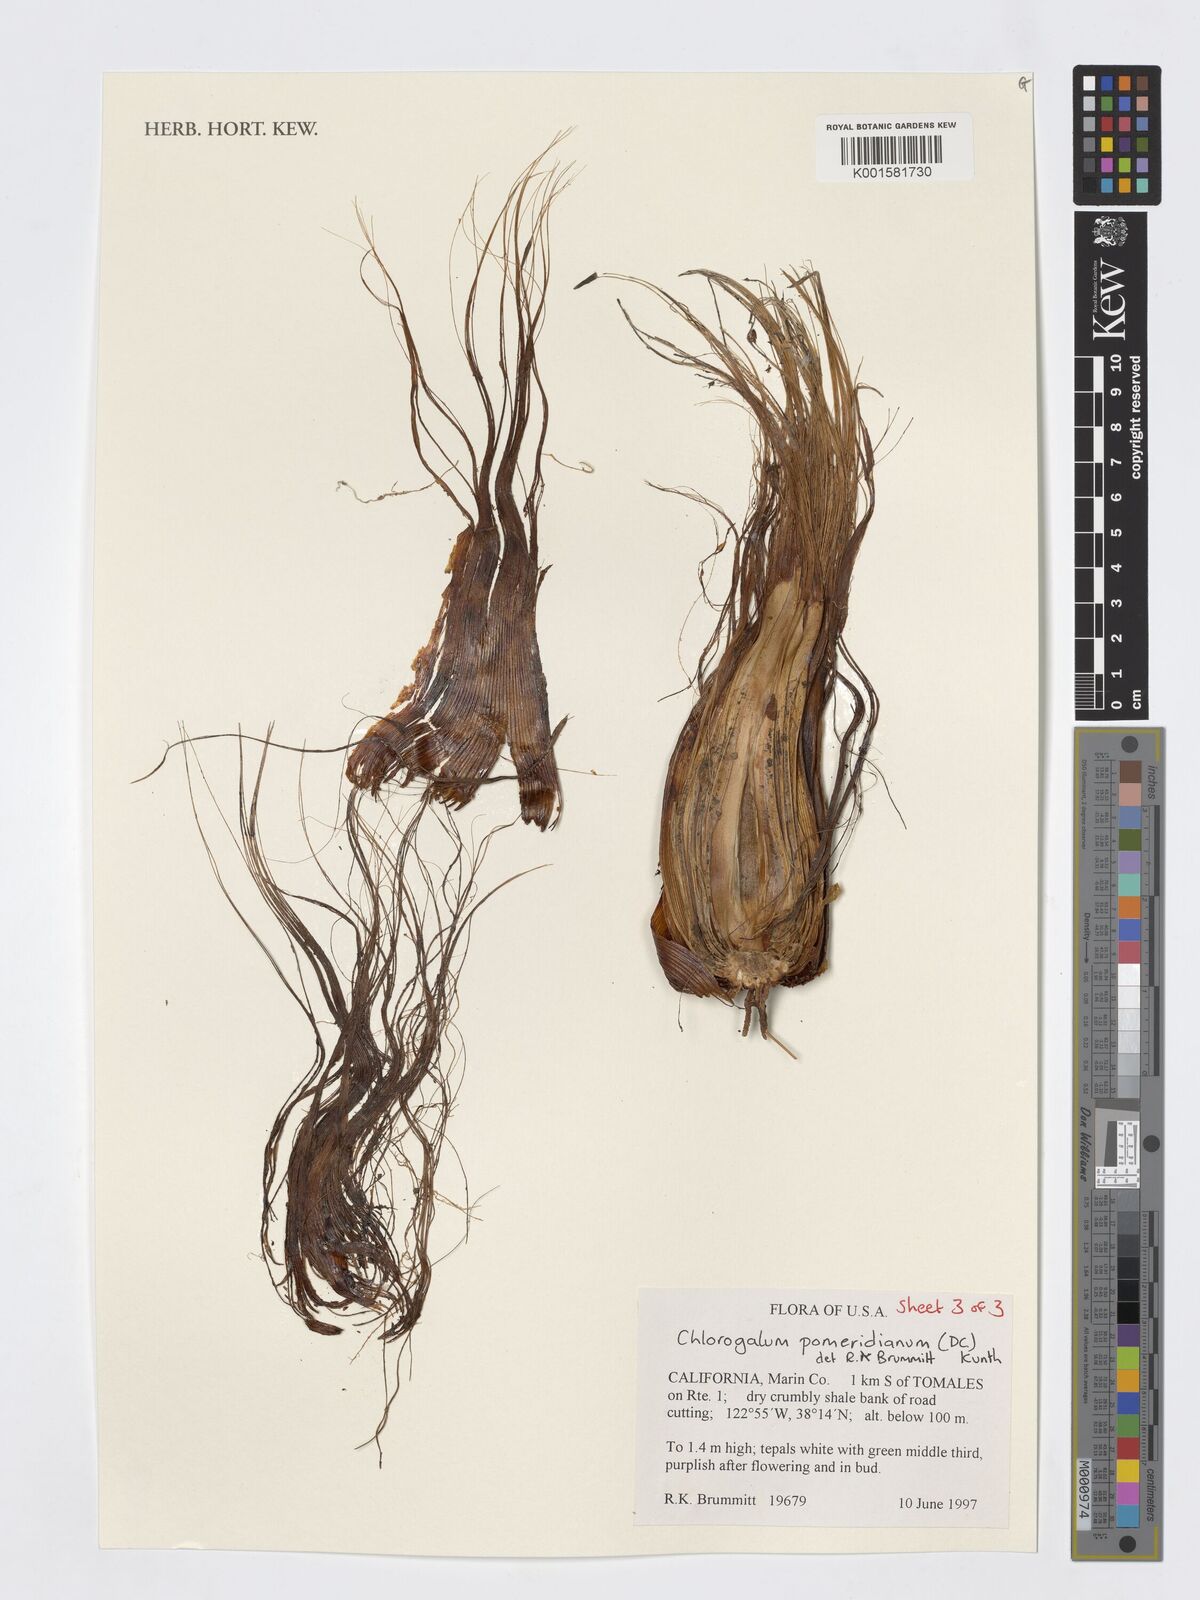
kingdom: Plantae
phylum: Tracheophyta
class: Liliopsida
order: Asparagales
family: Asparagaceae
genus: Chlorogalum
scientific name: Chlorogalum pomeridianum
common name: Amole
